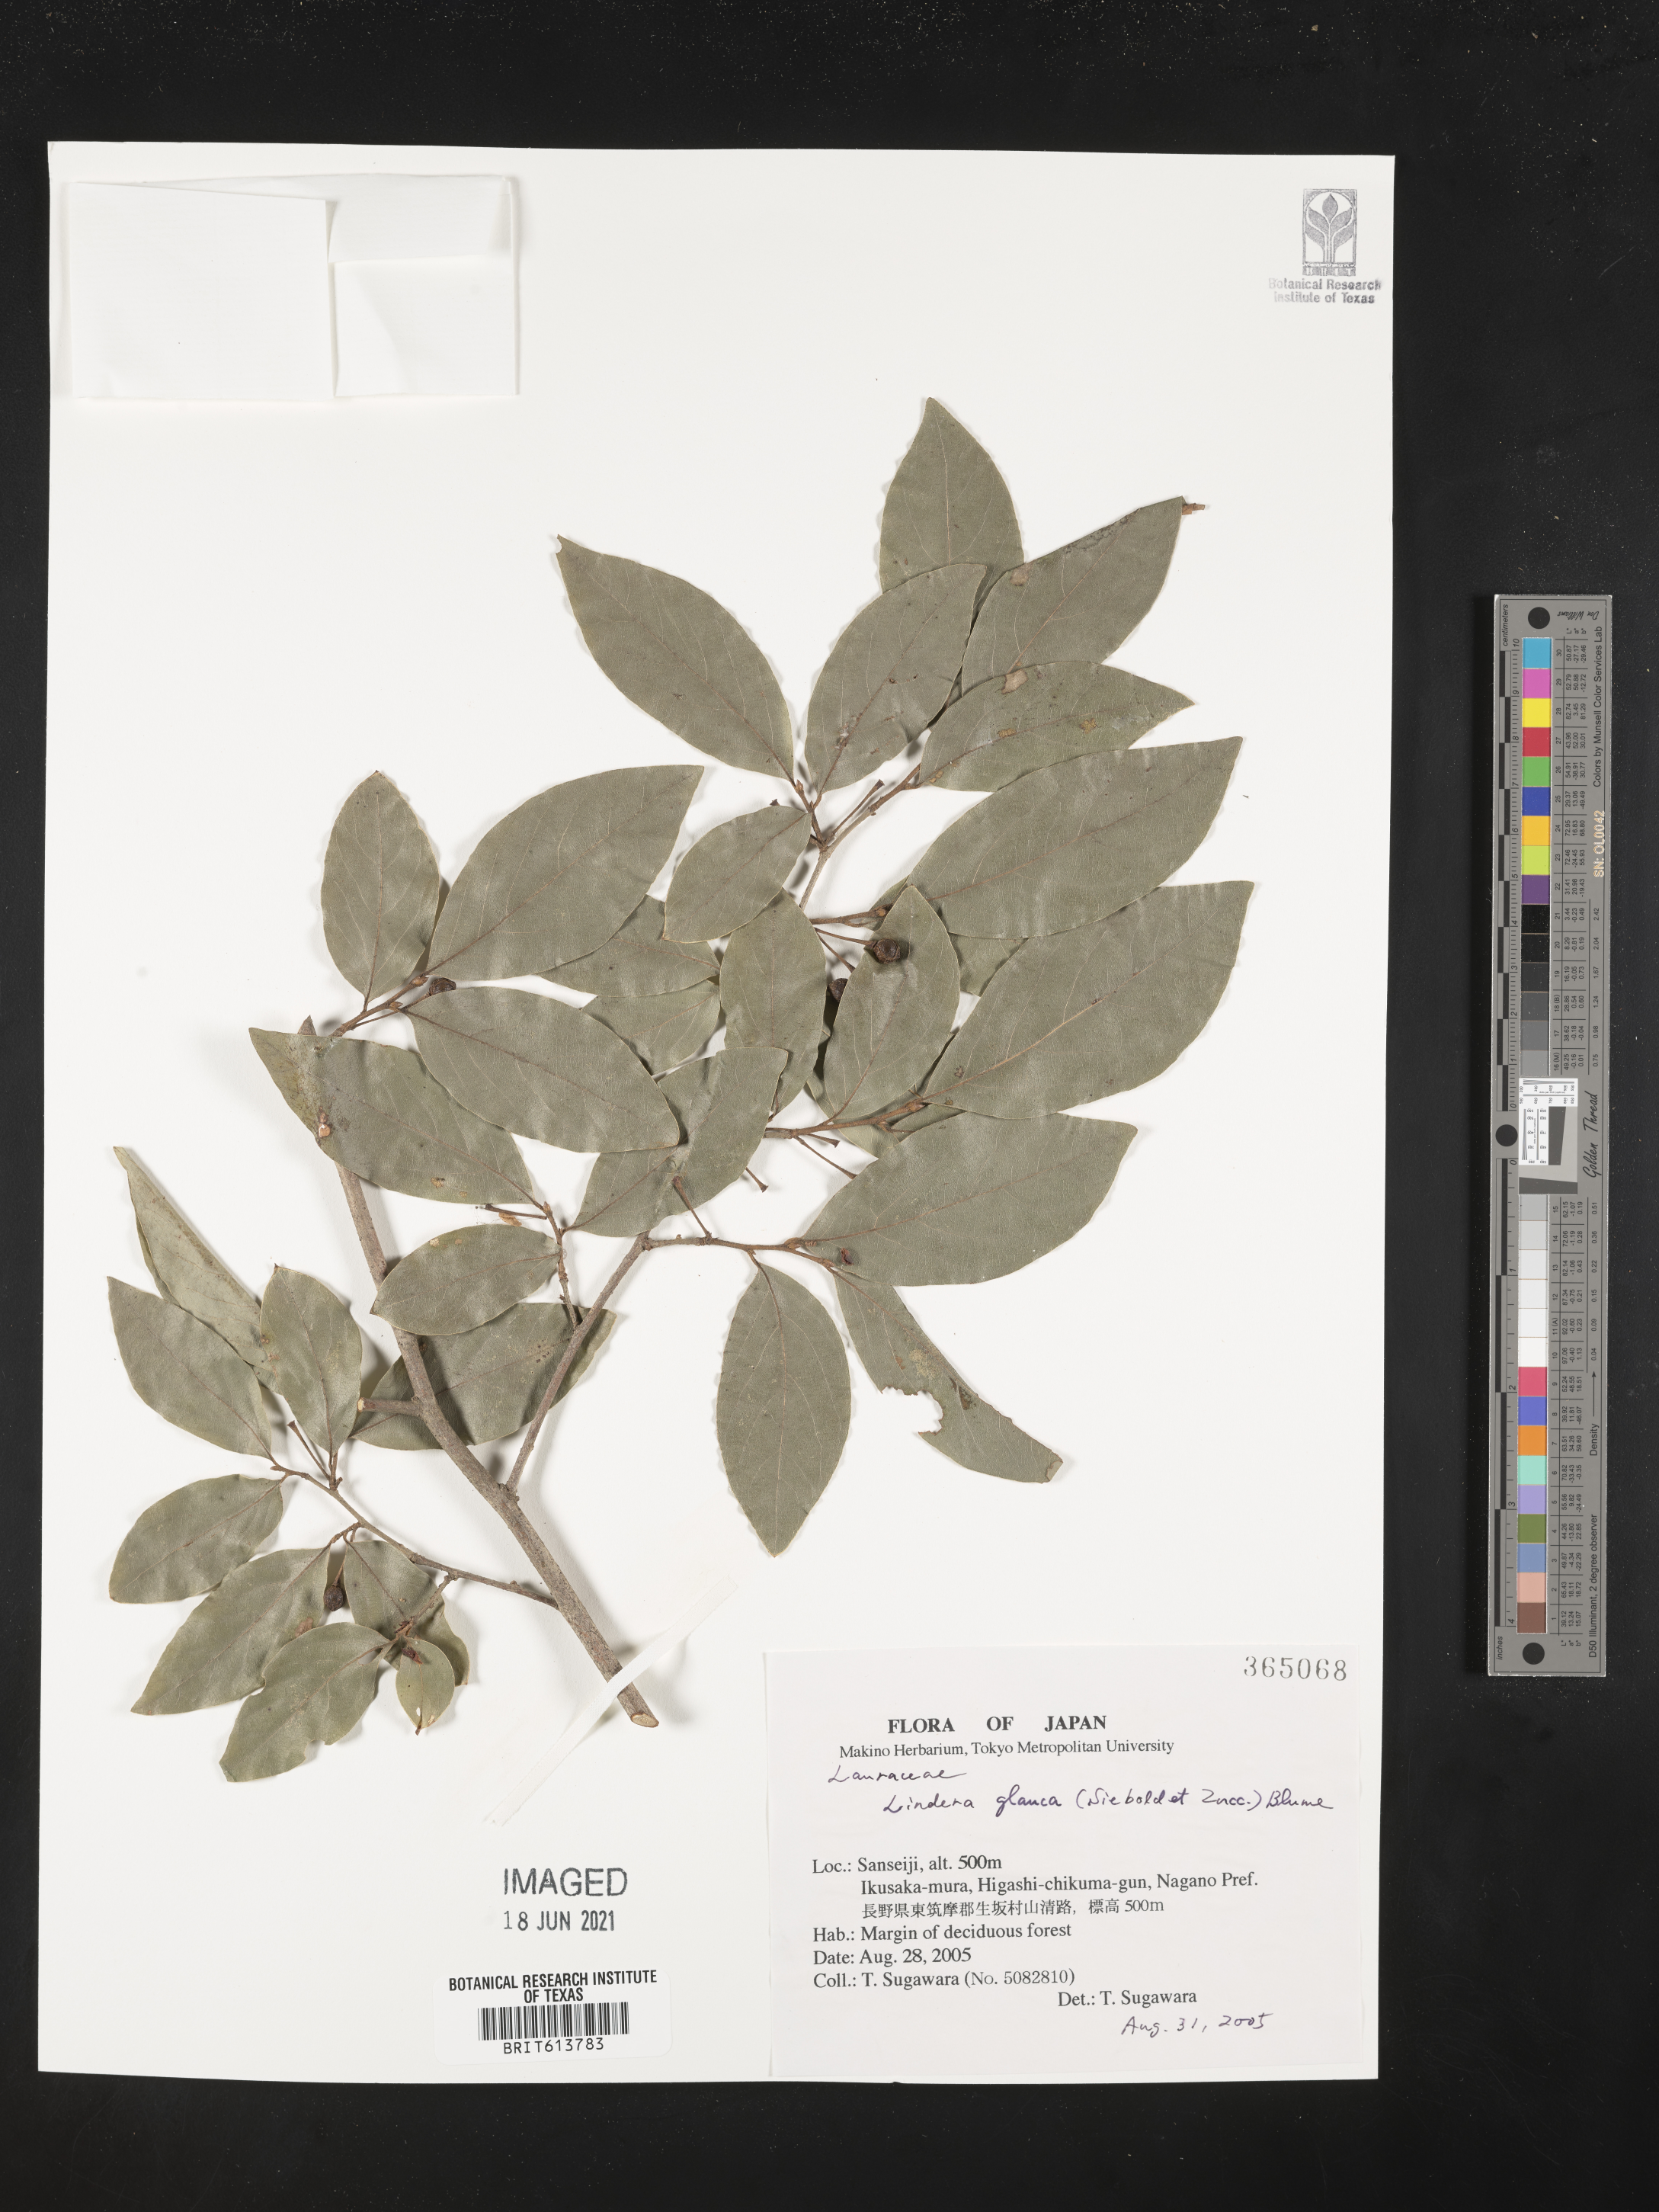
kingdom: Plantae
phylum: Tracheophyta
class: Magnoliopsida
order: Laurales
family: Lauraceae
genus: Lindera
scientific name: Lindera glauca
